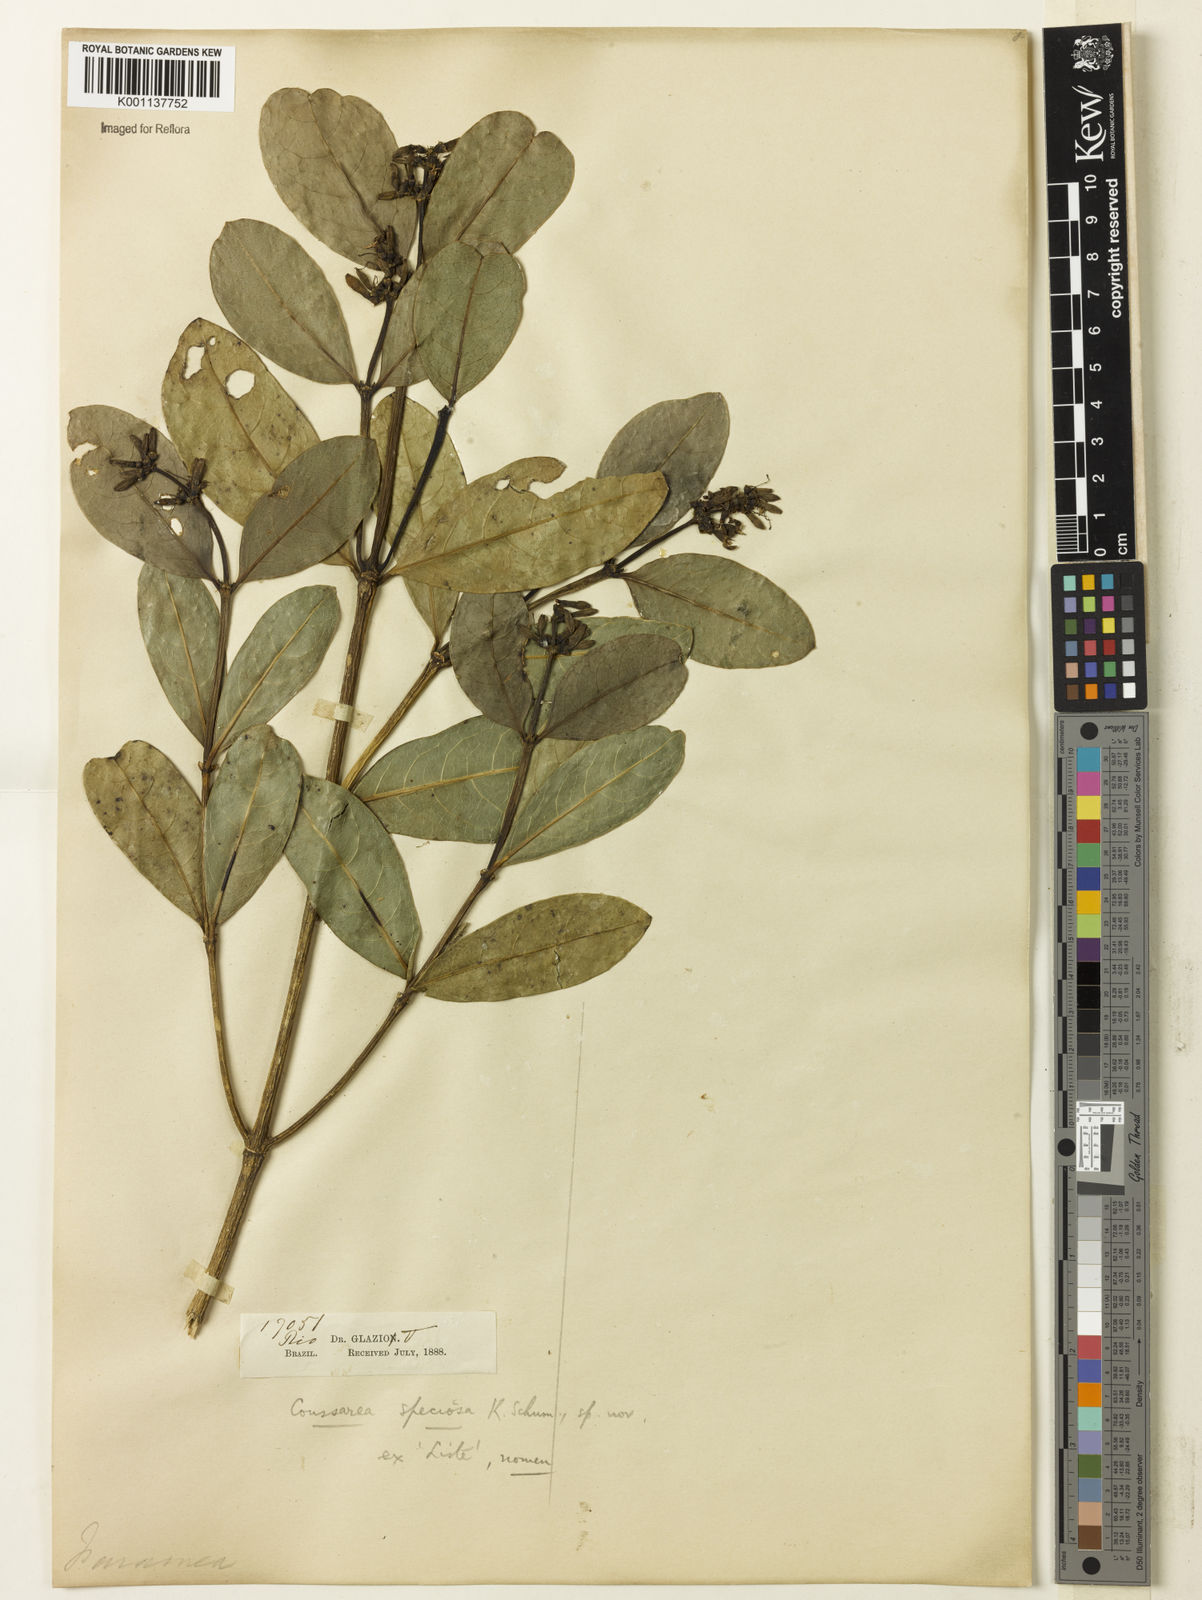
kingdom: Plantae
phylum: Tracheophyta
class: Magnoliopsida
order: Gentianales
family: Rubiaceae
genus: Coussarea
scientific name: Coussarea
